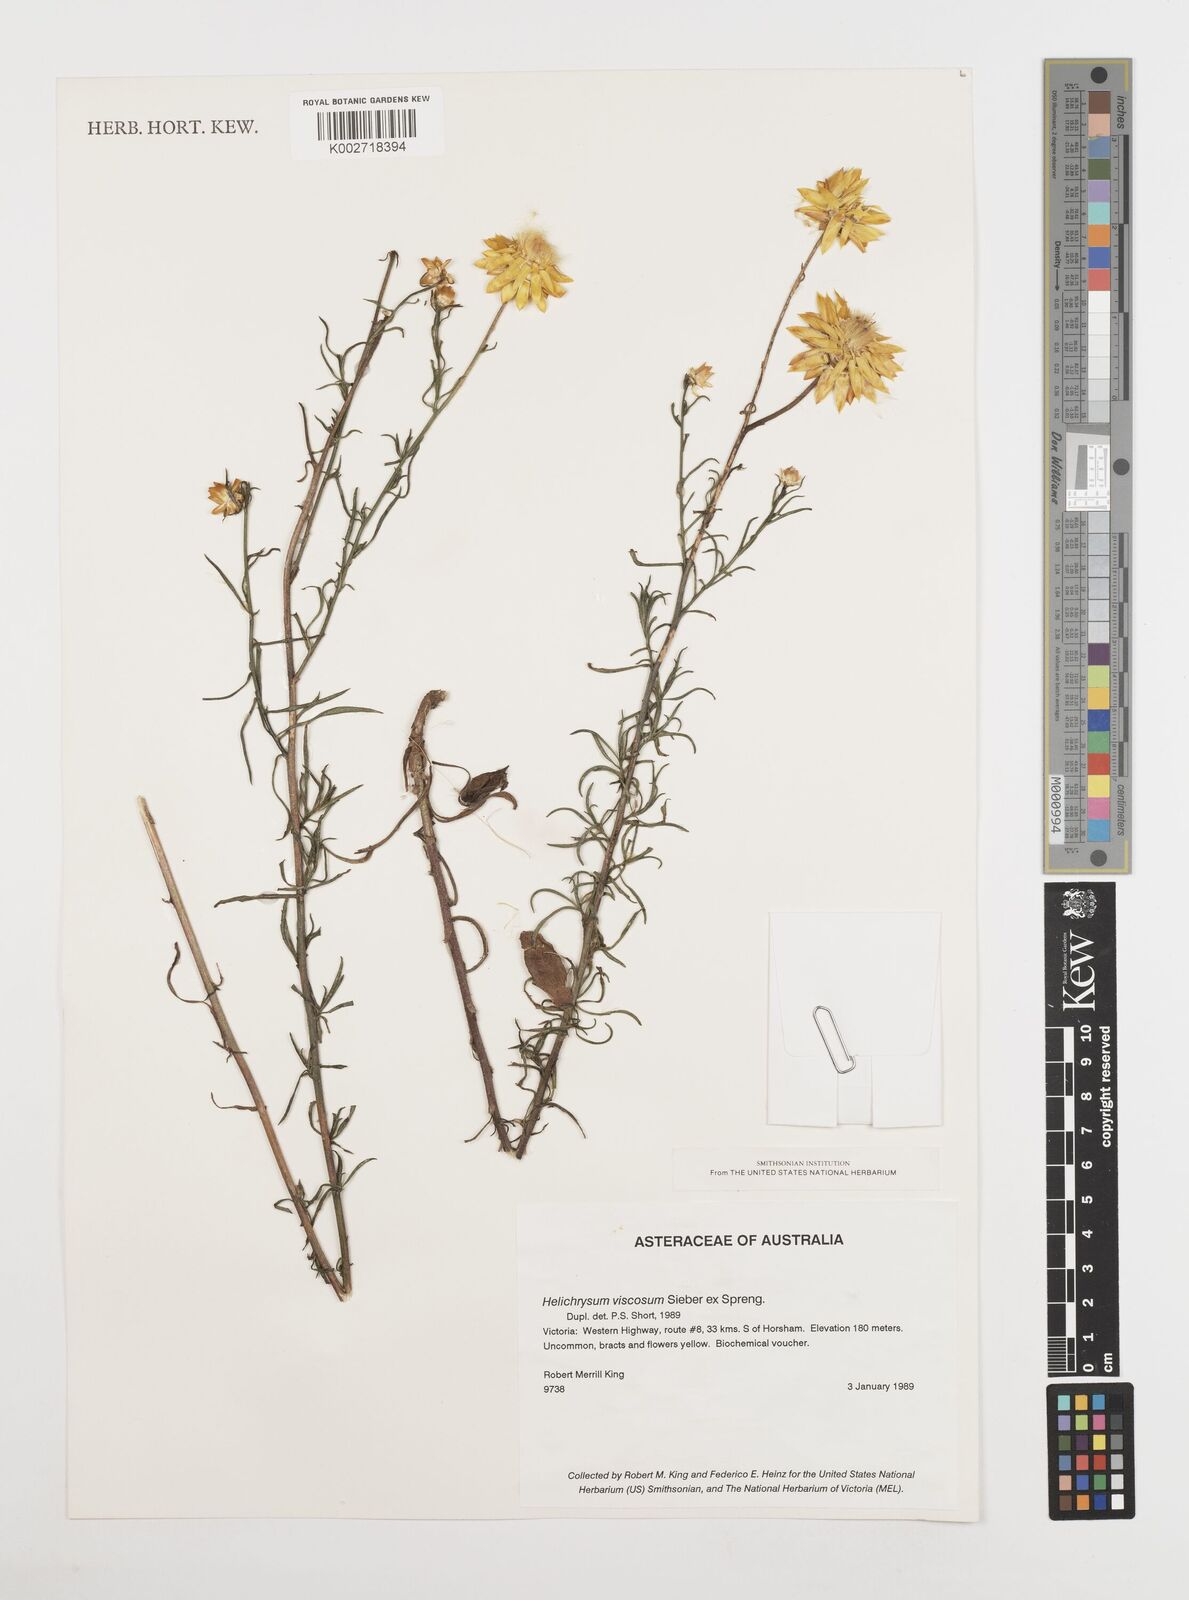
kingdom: Plantae
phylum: Tracheophyta
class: Magnoliopsida
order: Asterales
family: Asteraceae
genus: Xerochrysum
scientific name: Xerochrysum viscosum
